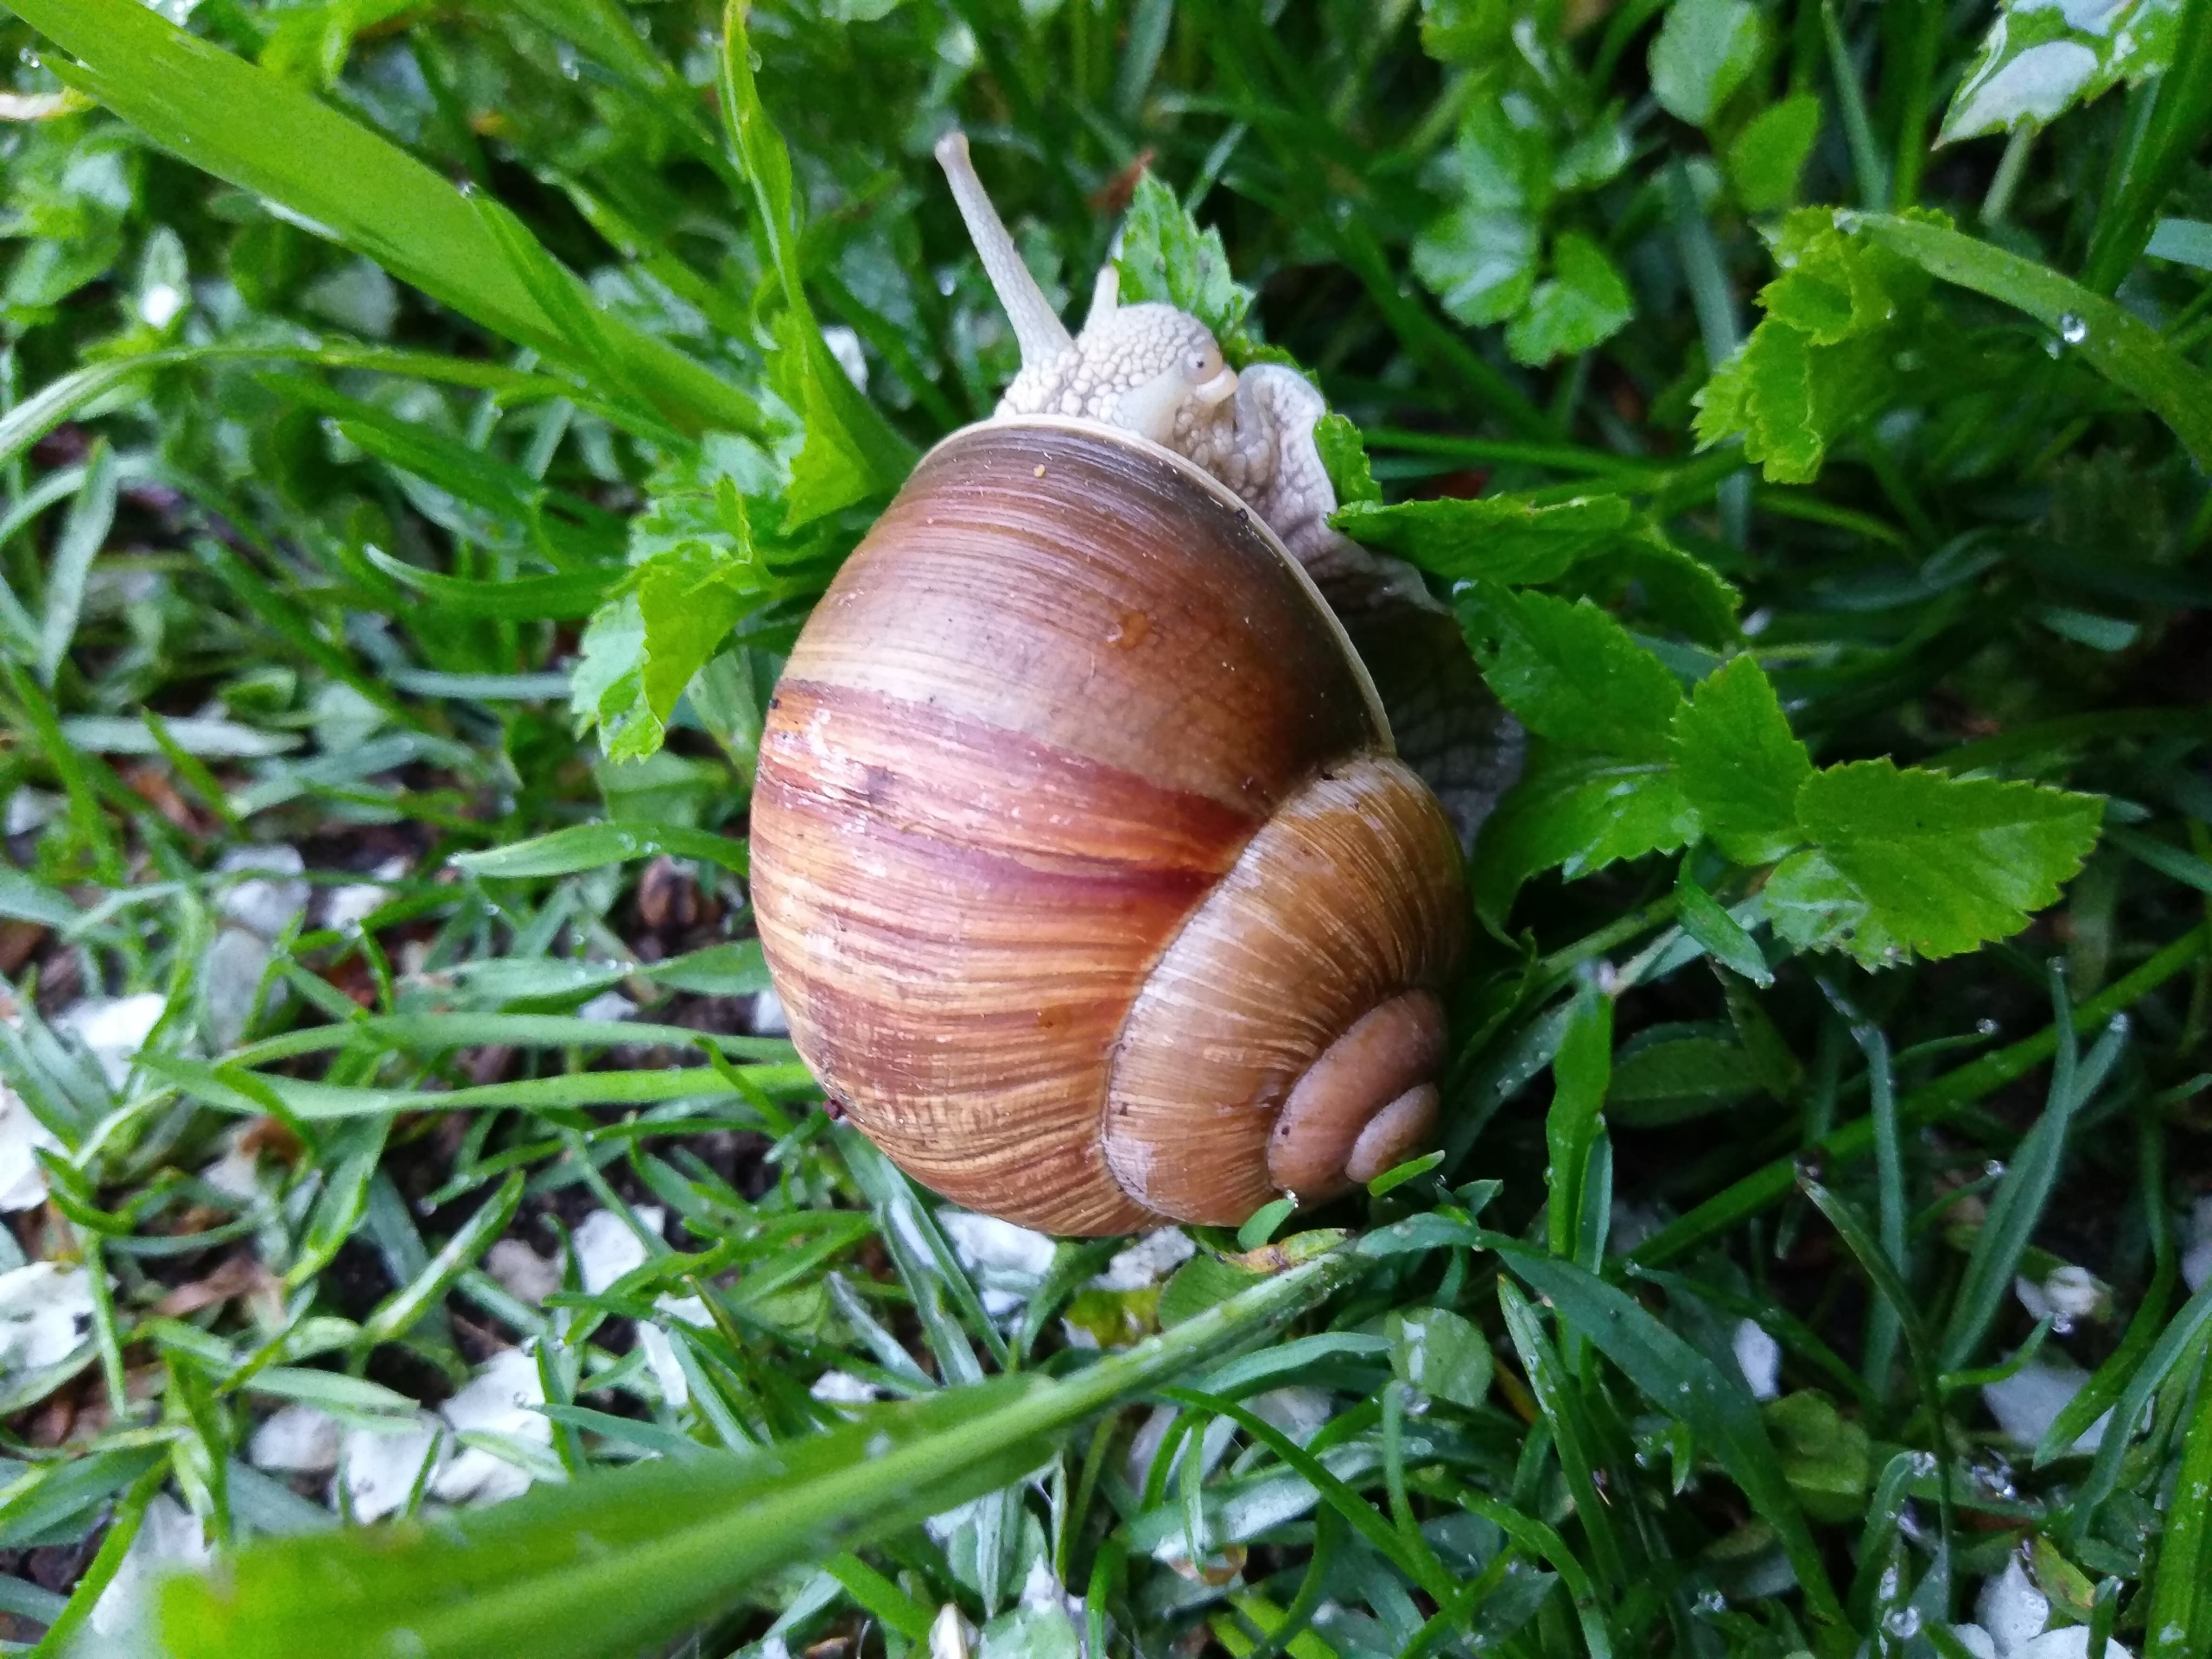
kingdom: Animalia
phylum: Mollusca
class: Gastropoda
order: Stylommatophora
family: Helicidae
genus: Helix
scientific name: Helix pomatia
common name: Vinbjergsnegl
